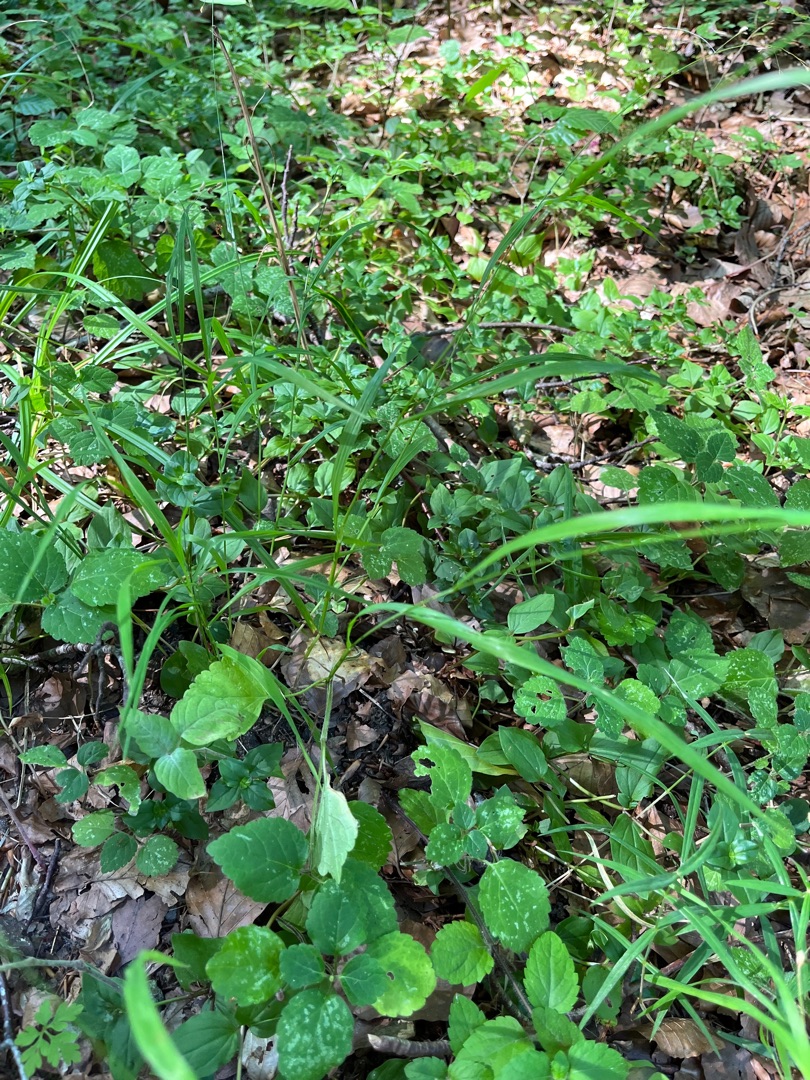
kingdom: Plantae
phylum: Tracheophyta
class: Liliopsida
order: Poales
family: Poaceae
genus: Melica
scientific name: Melica uniflora
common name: Enblomstret flitteraks
